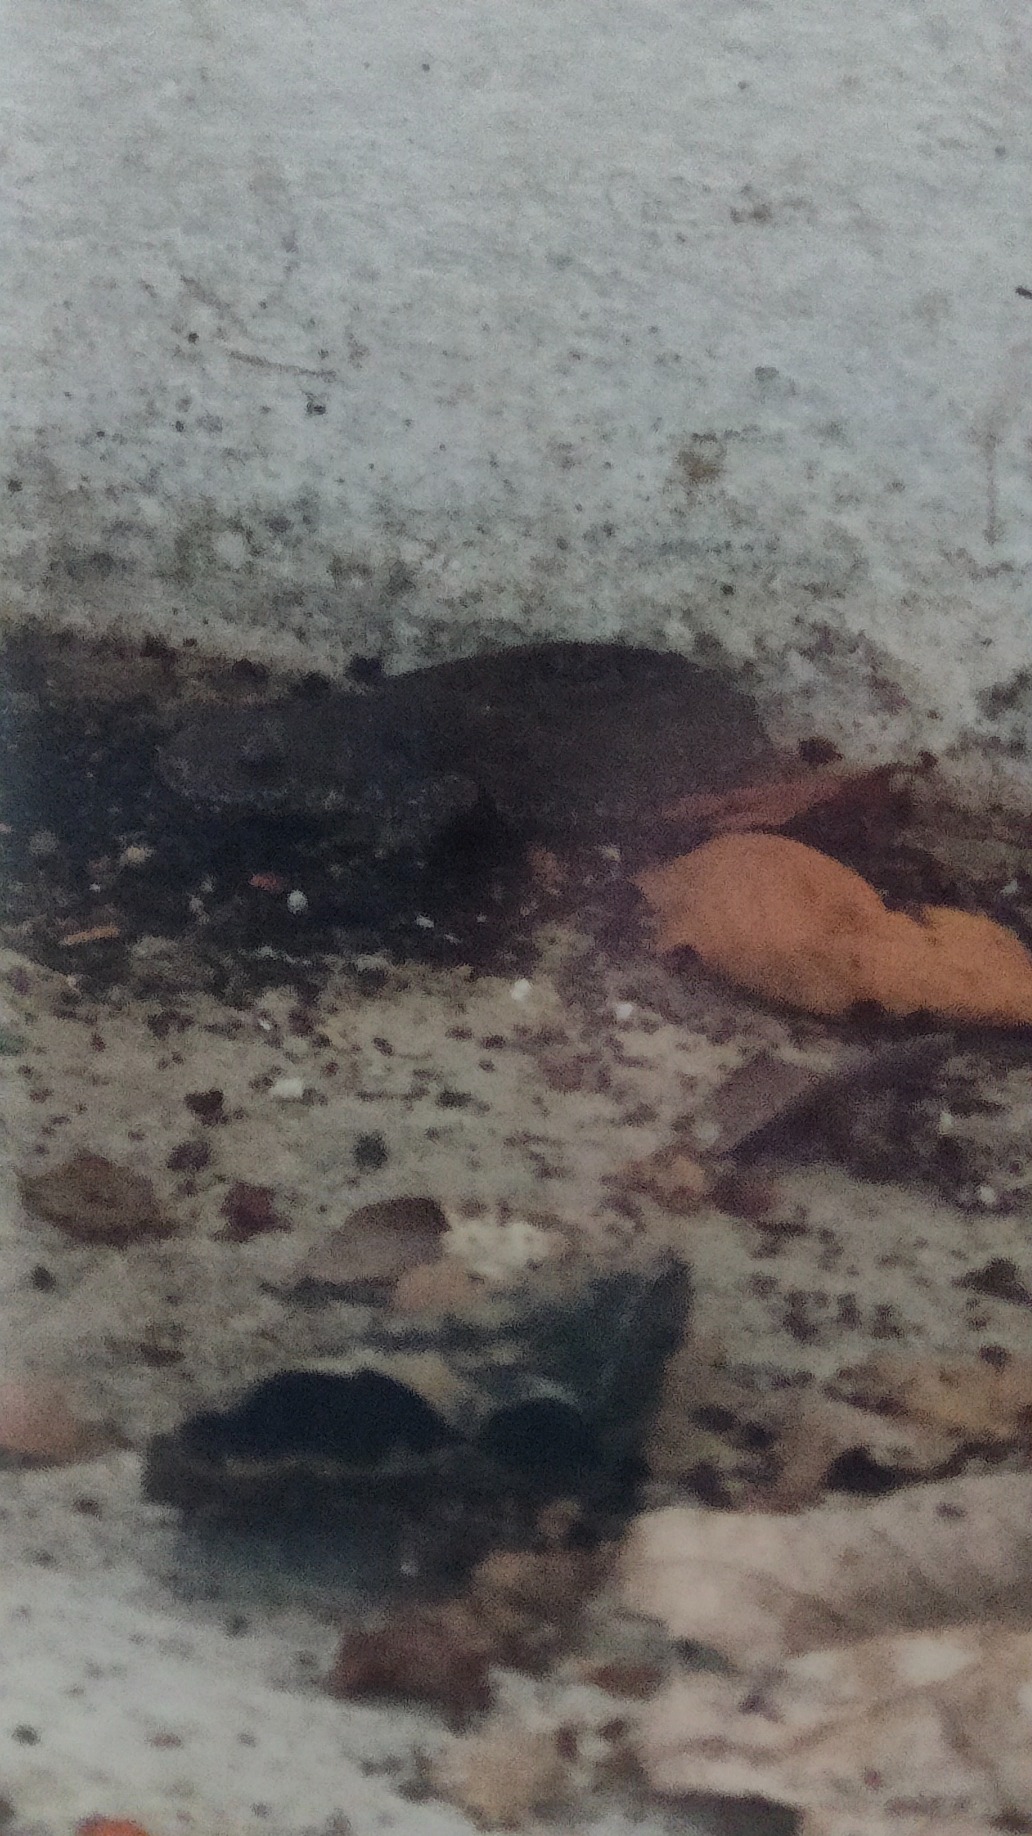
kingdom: Animalia
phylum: Chordata
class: Amphibia
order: Caudata
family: Salamandridae
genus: Triturus
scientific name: Triturus cristatus
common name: Stor vandsalamander
